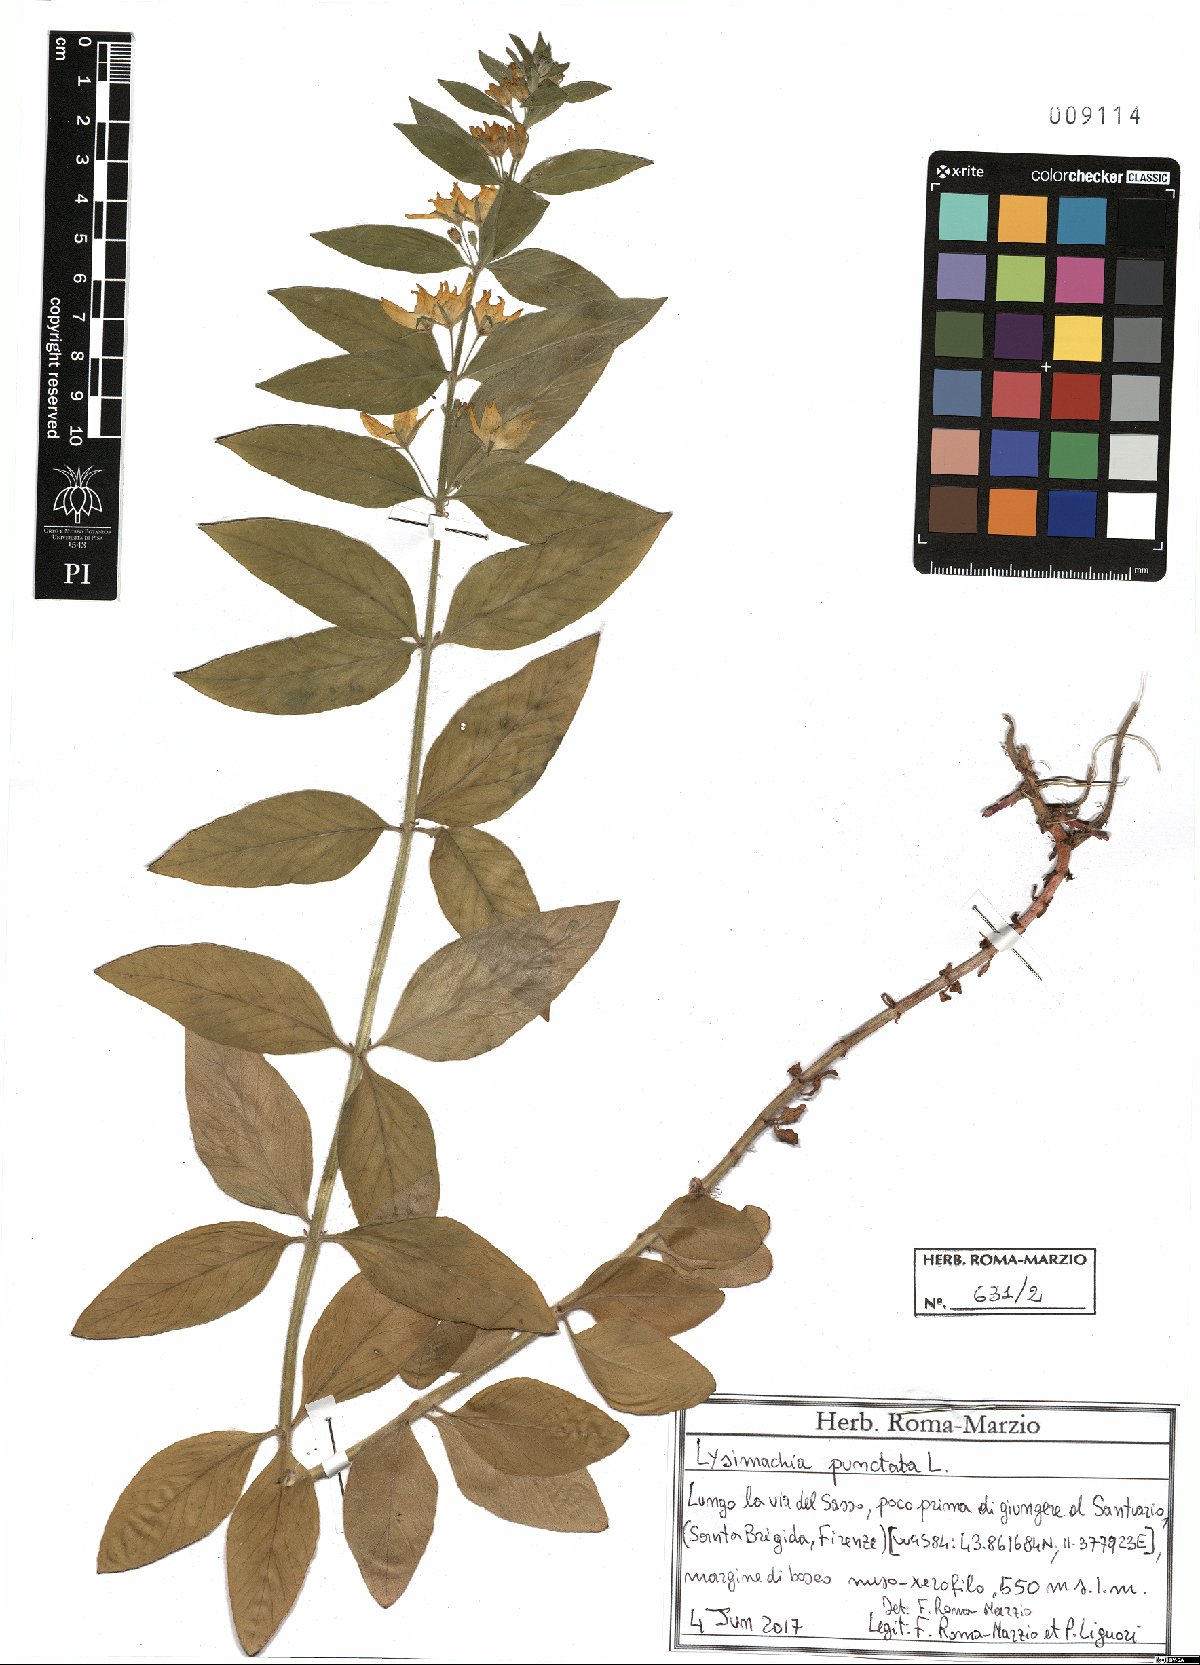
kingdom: Plantae
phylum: Tracheophyta
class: Magnoliopsida
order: Ericales
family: Primulaceae
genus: Lysimachia
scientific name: Lysimachia punctata
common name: Dotted loosestrife
